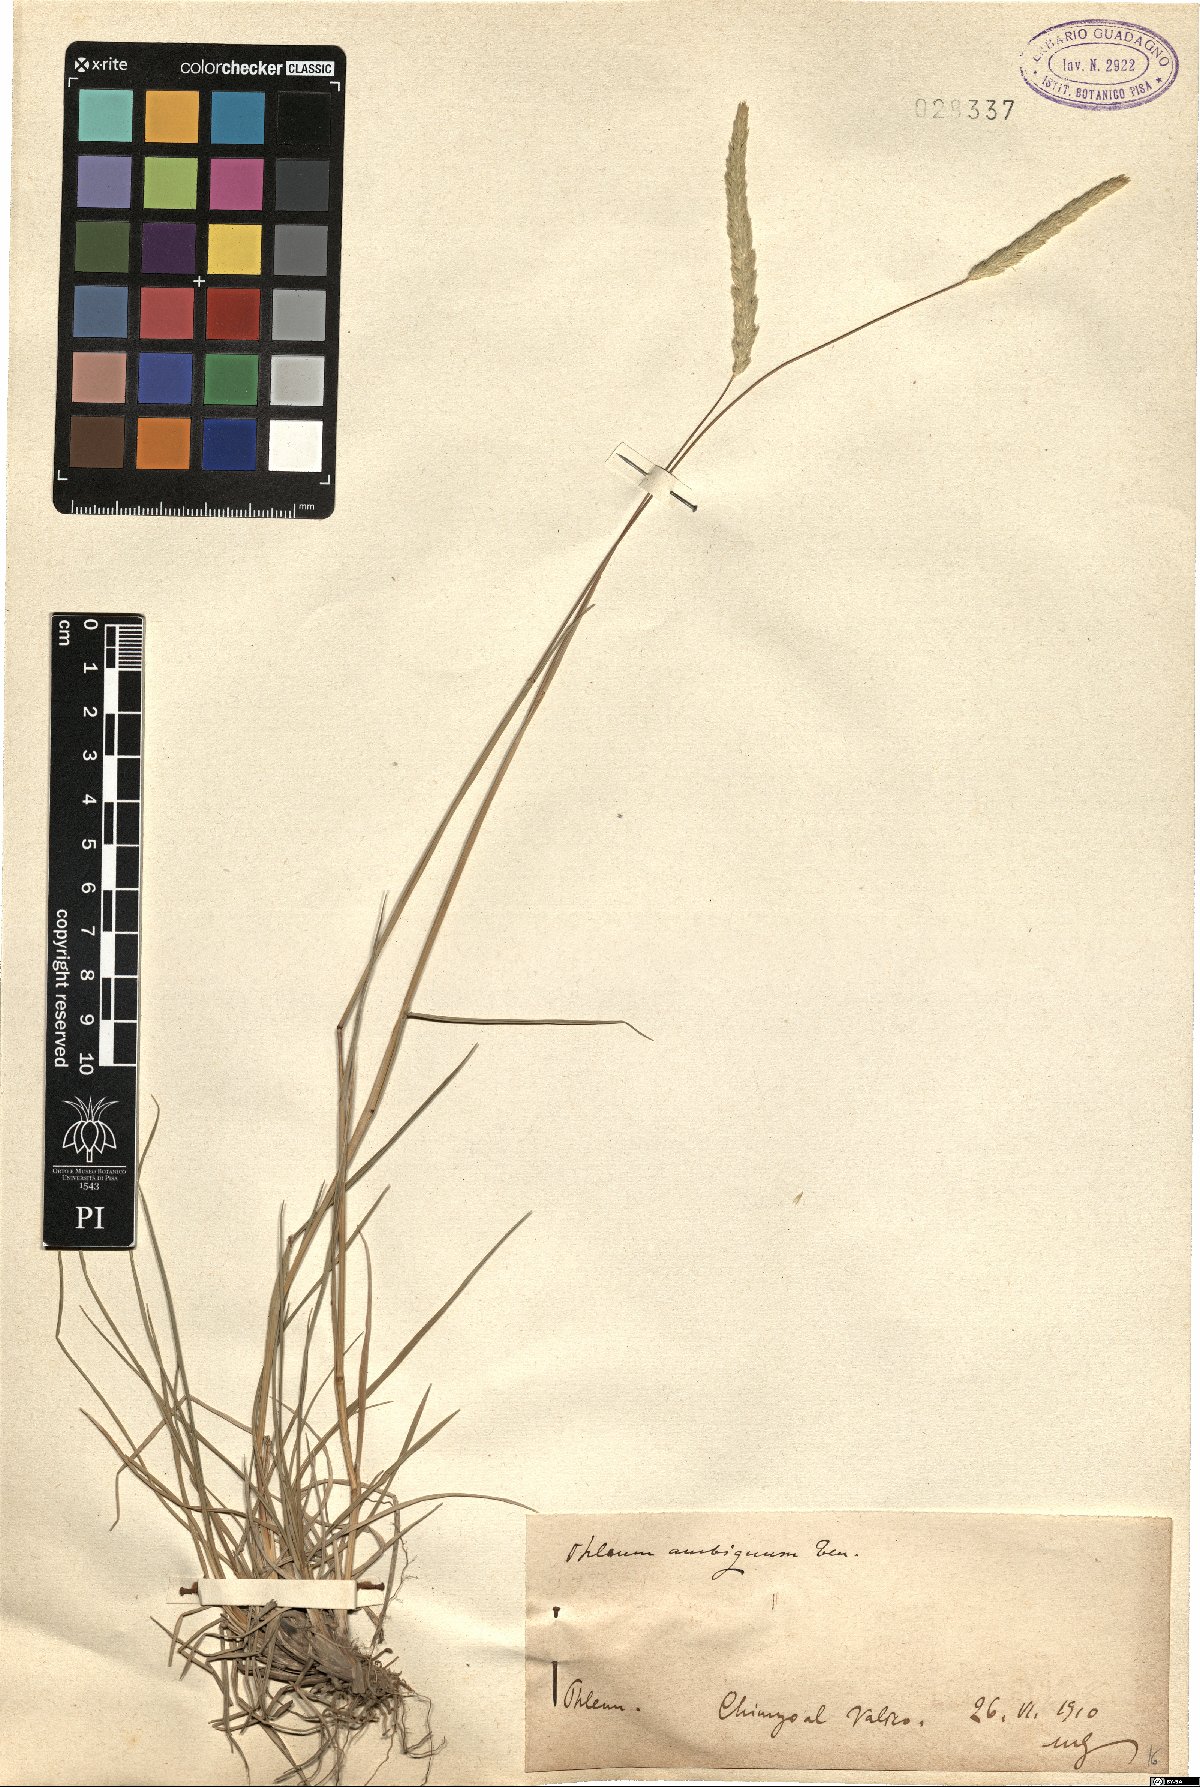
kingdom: Plantae
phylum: Tracheophyta
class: Liliopsida
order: Poales
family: Poaceae
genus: Phleum
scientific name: Phleum hirsutum
